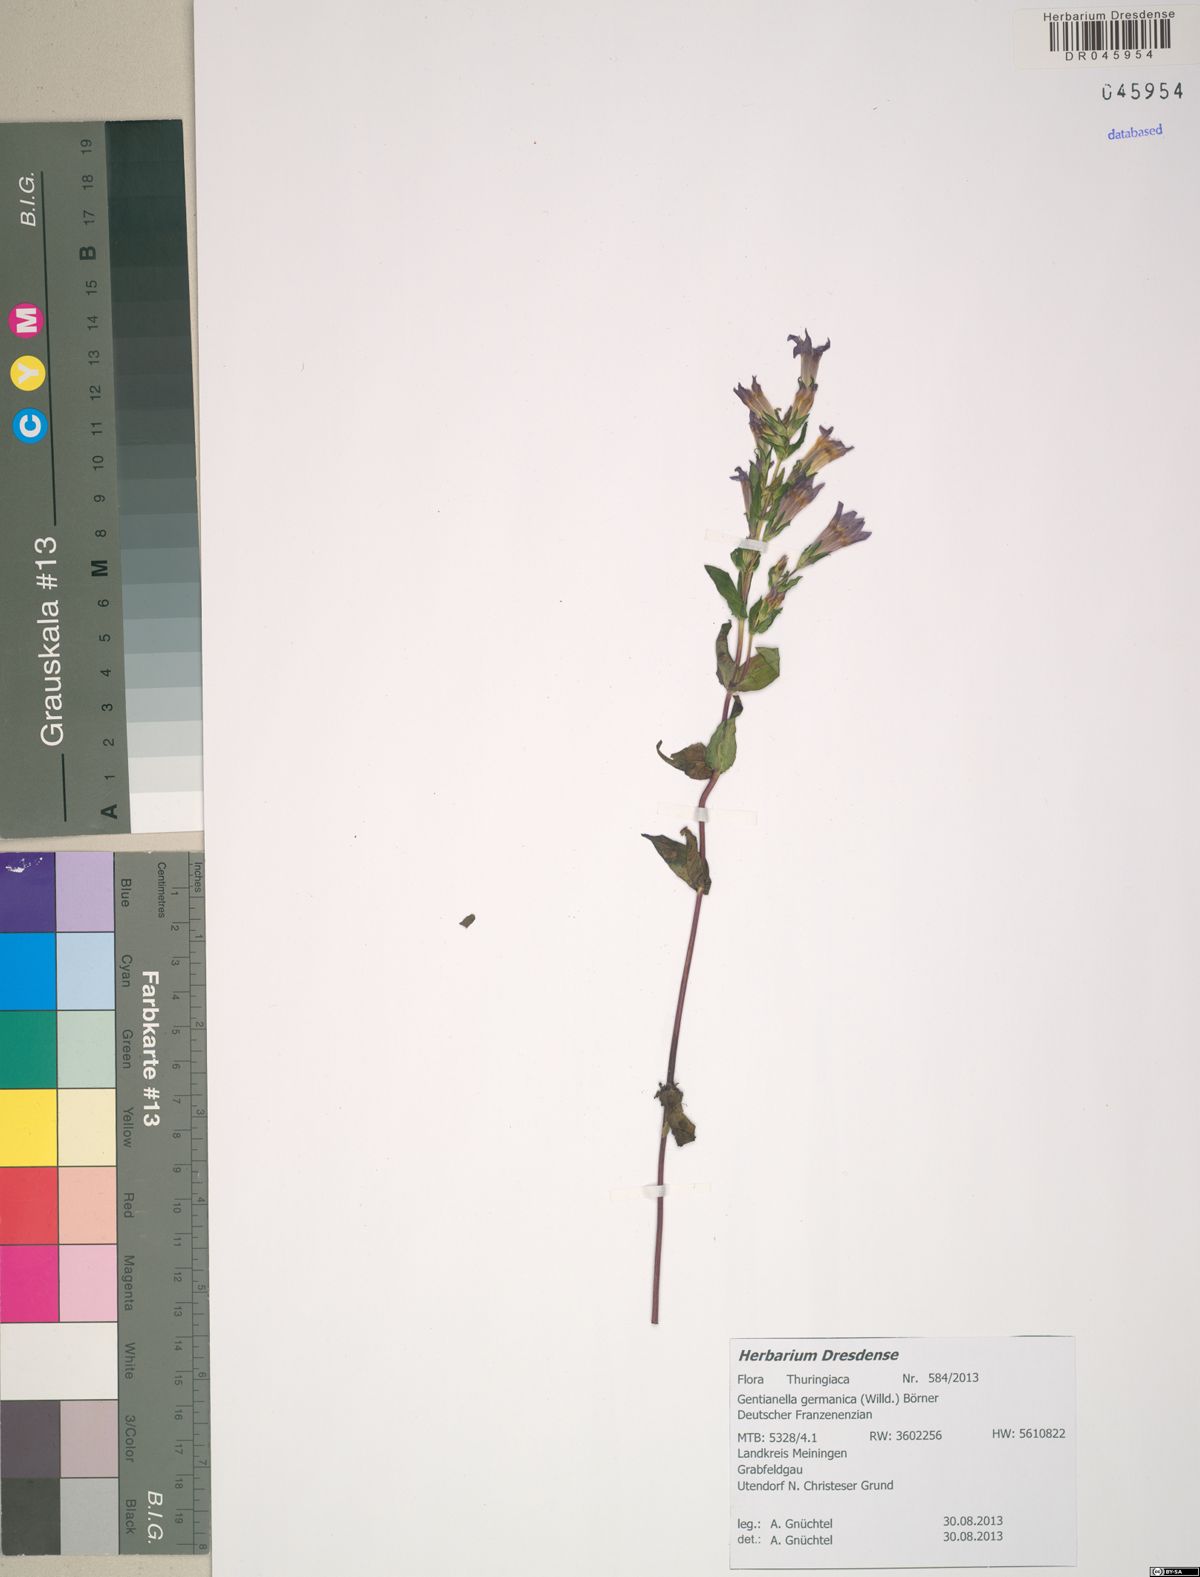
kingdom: Plantae
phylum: Tracheophyta
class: Magnoliopsida
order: Gentianales
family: Gentianaceae
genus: Gentianella
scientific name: Gentianella germanica
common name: Chiltern-gentian
